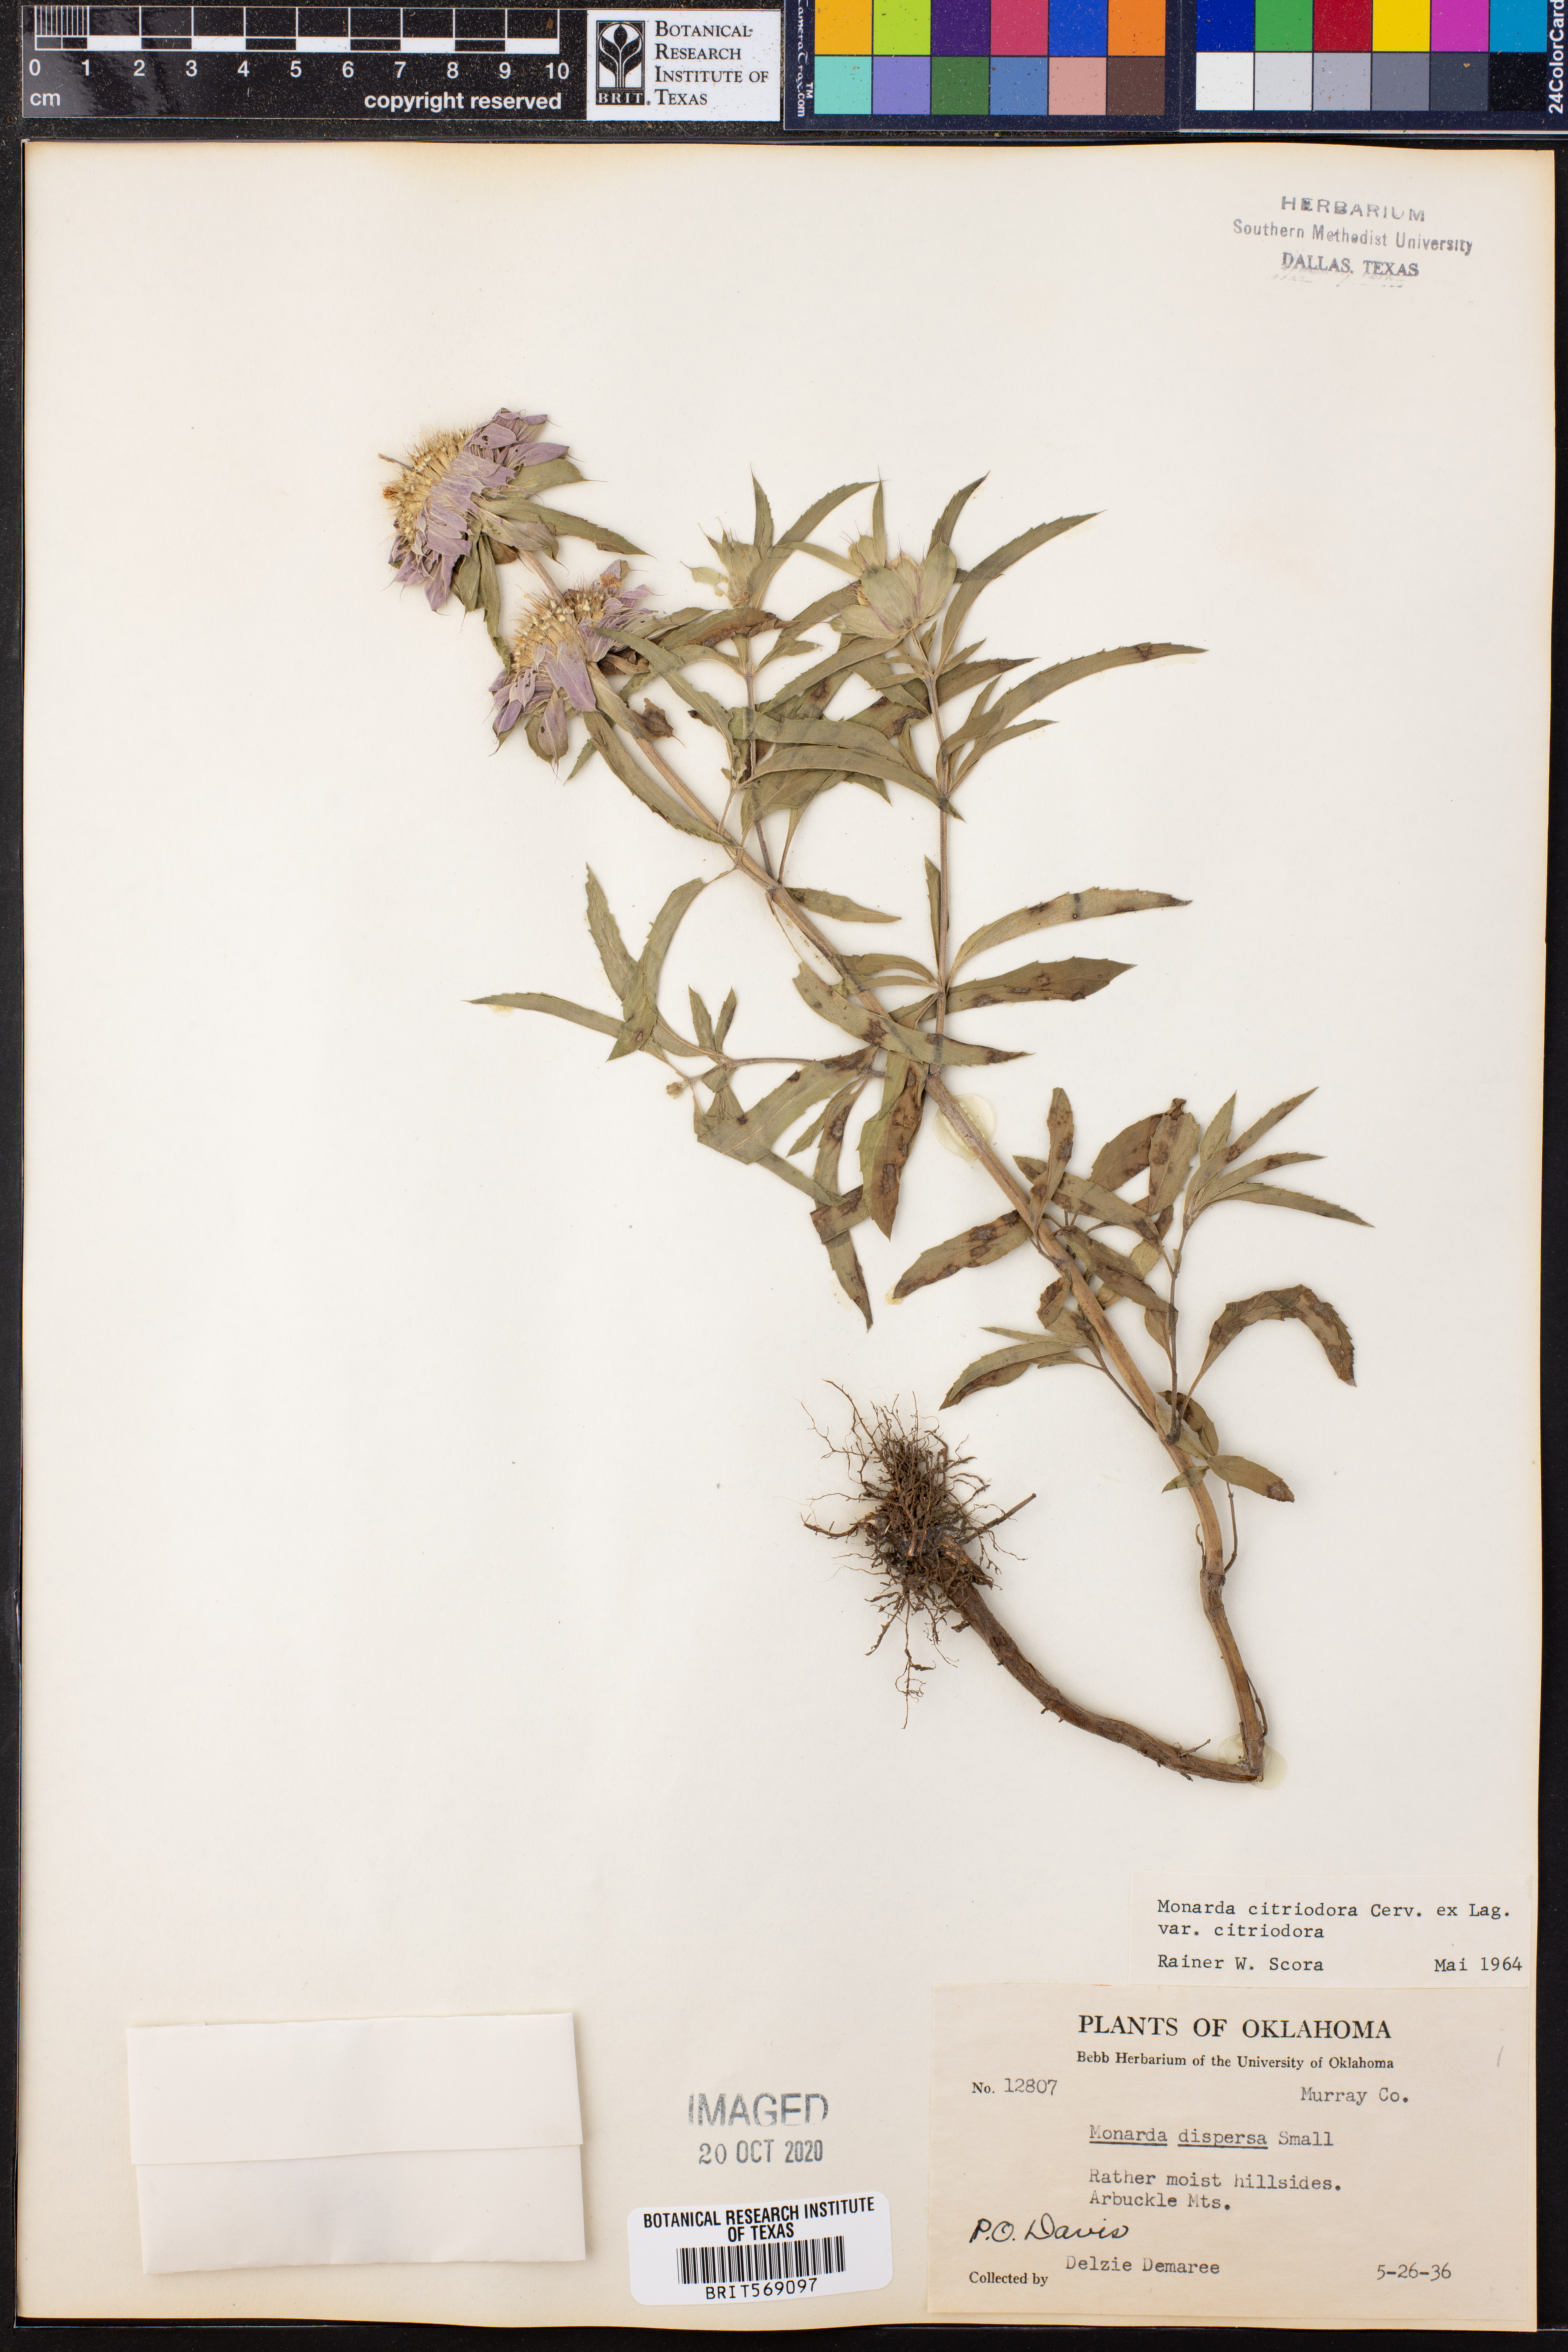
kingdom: Plantae
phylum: Tracheophyta
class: Magnoliopsida
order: Lamiales
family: Lamiaceae
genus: Monarda
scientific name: Monarda citriodora
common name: Lemon beebalm
